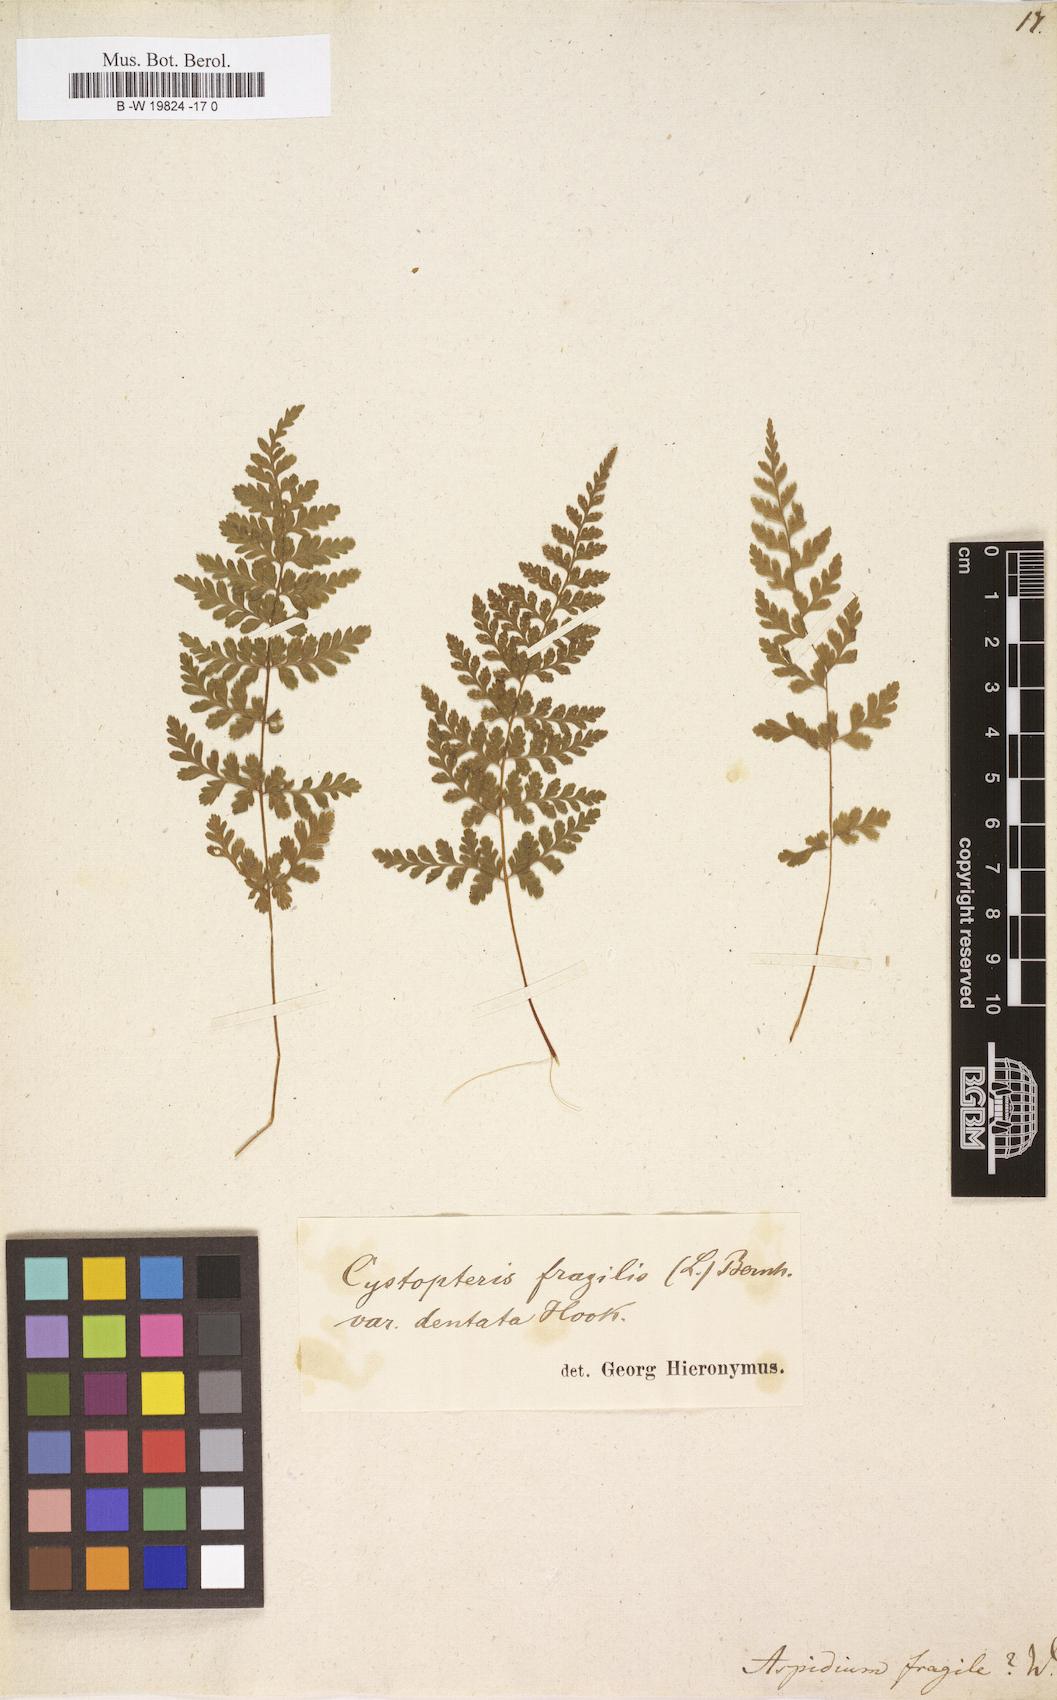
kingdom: Plantae
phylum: Tracheophyta
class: Polypodiopsida
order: Polypodiales
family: Cystopteridaceae
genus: Cystopteris
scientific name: Cystopteris fragilis
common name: Brittle bladder fern
